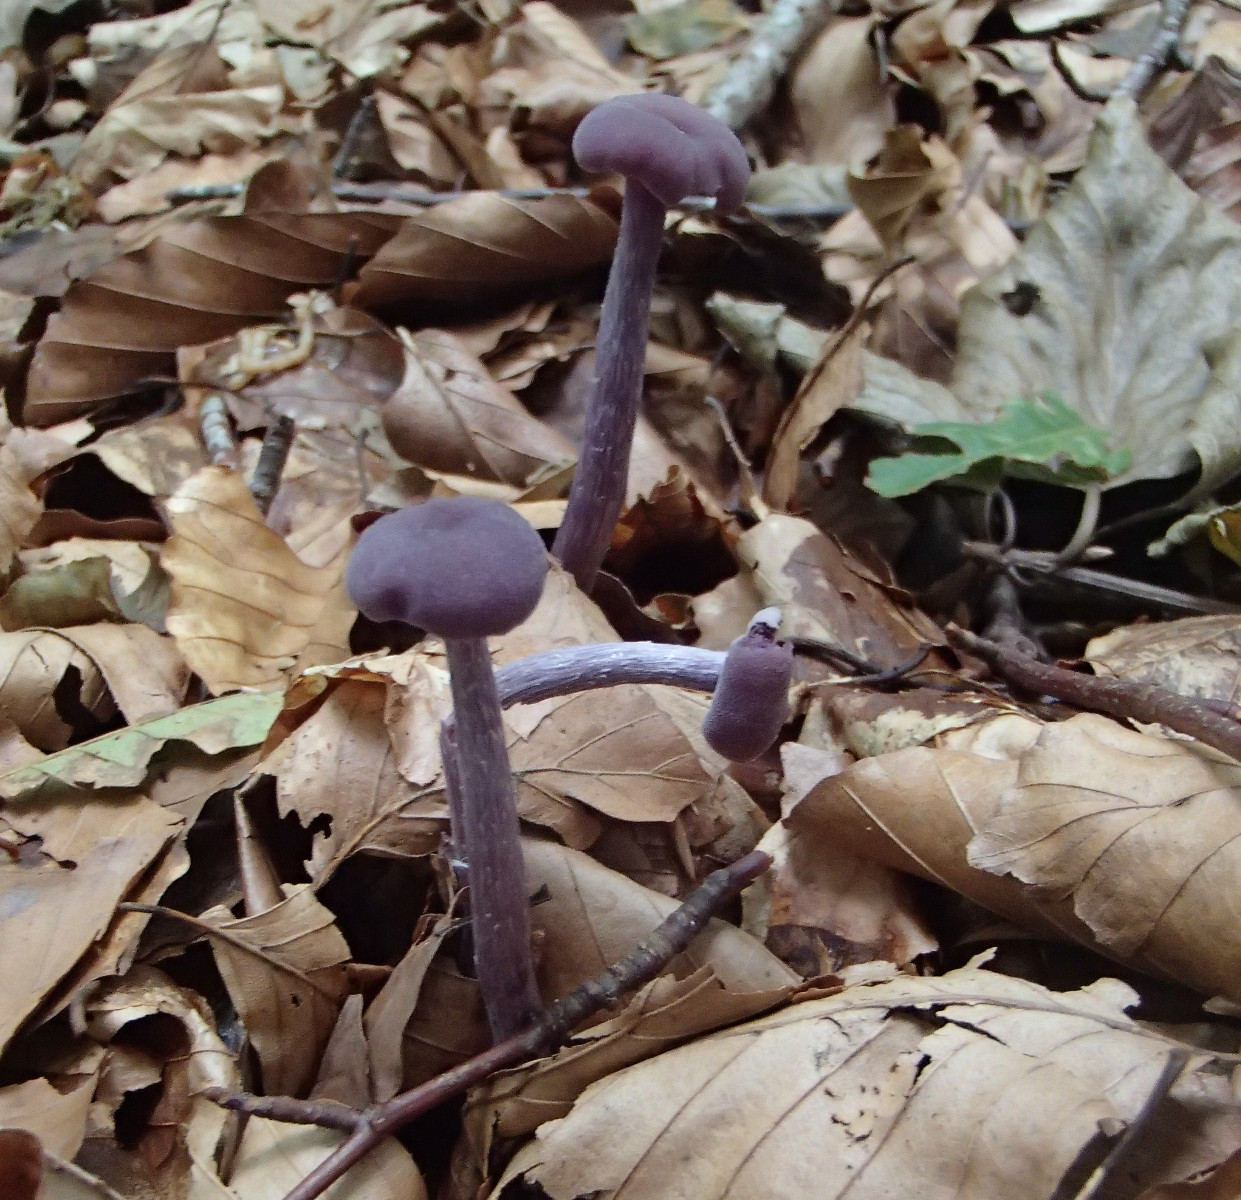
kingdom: Fungi
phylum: Basidiomycota
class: Agaricomycetes
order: Agaricales
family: Hydnangiaceae
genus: Laccaria
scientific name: Laccaria amethystina
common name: violet ametysthat
